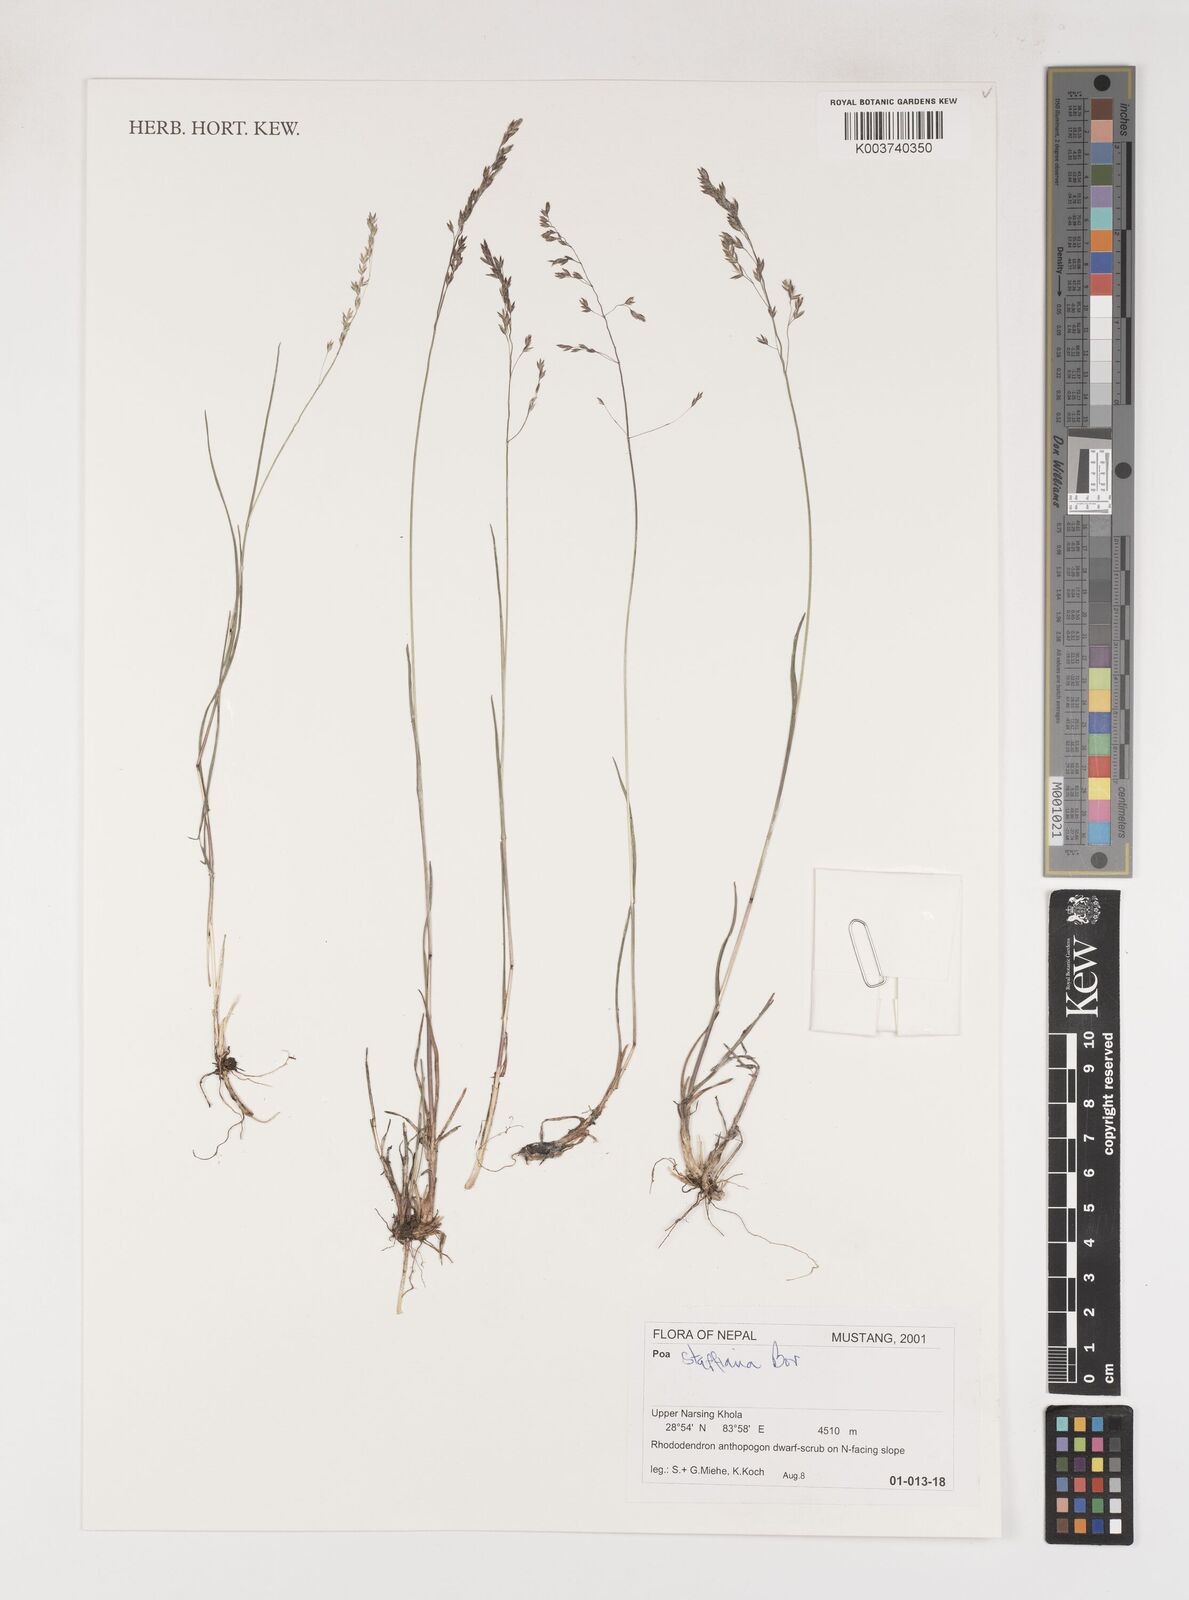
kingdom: Plantae
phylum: Tracheophyta
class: Liliopsida
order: Poales
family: Poaceae
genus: Poa
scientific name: Poa stapfiana
